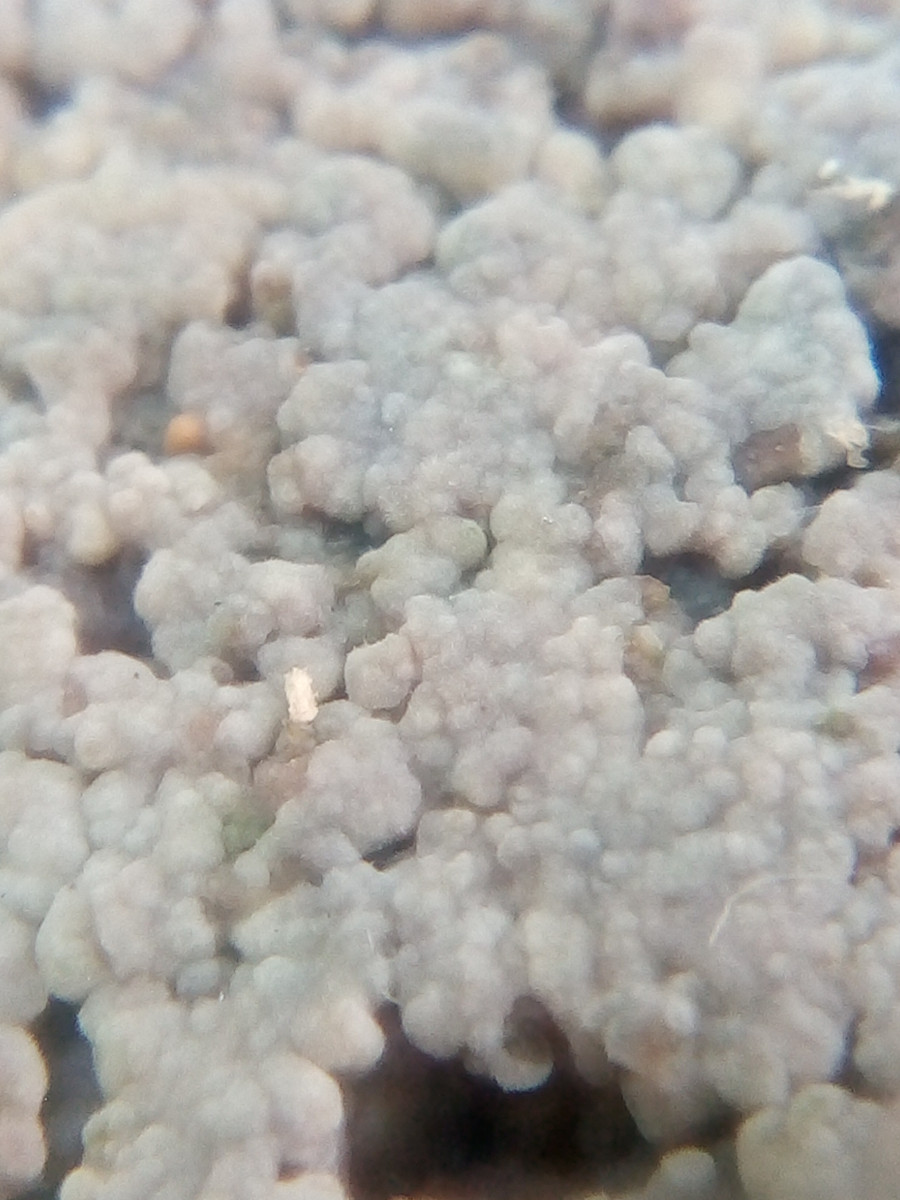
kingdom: Fungi
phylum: Basidiomycota
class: Agaricomycetes
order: Hymenochaetales
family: Rickenellaceae
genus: Peniophorella
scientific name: Peniophorella pubera
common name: dunet kalkskind
